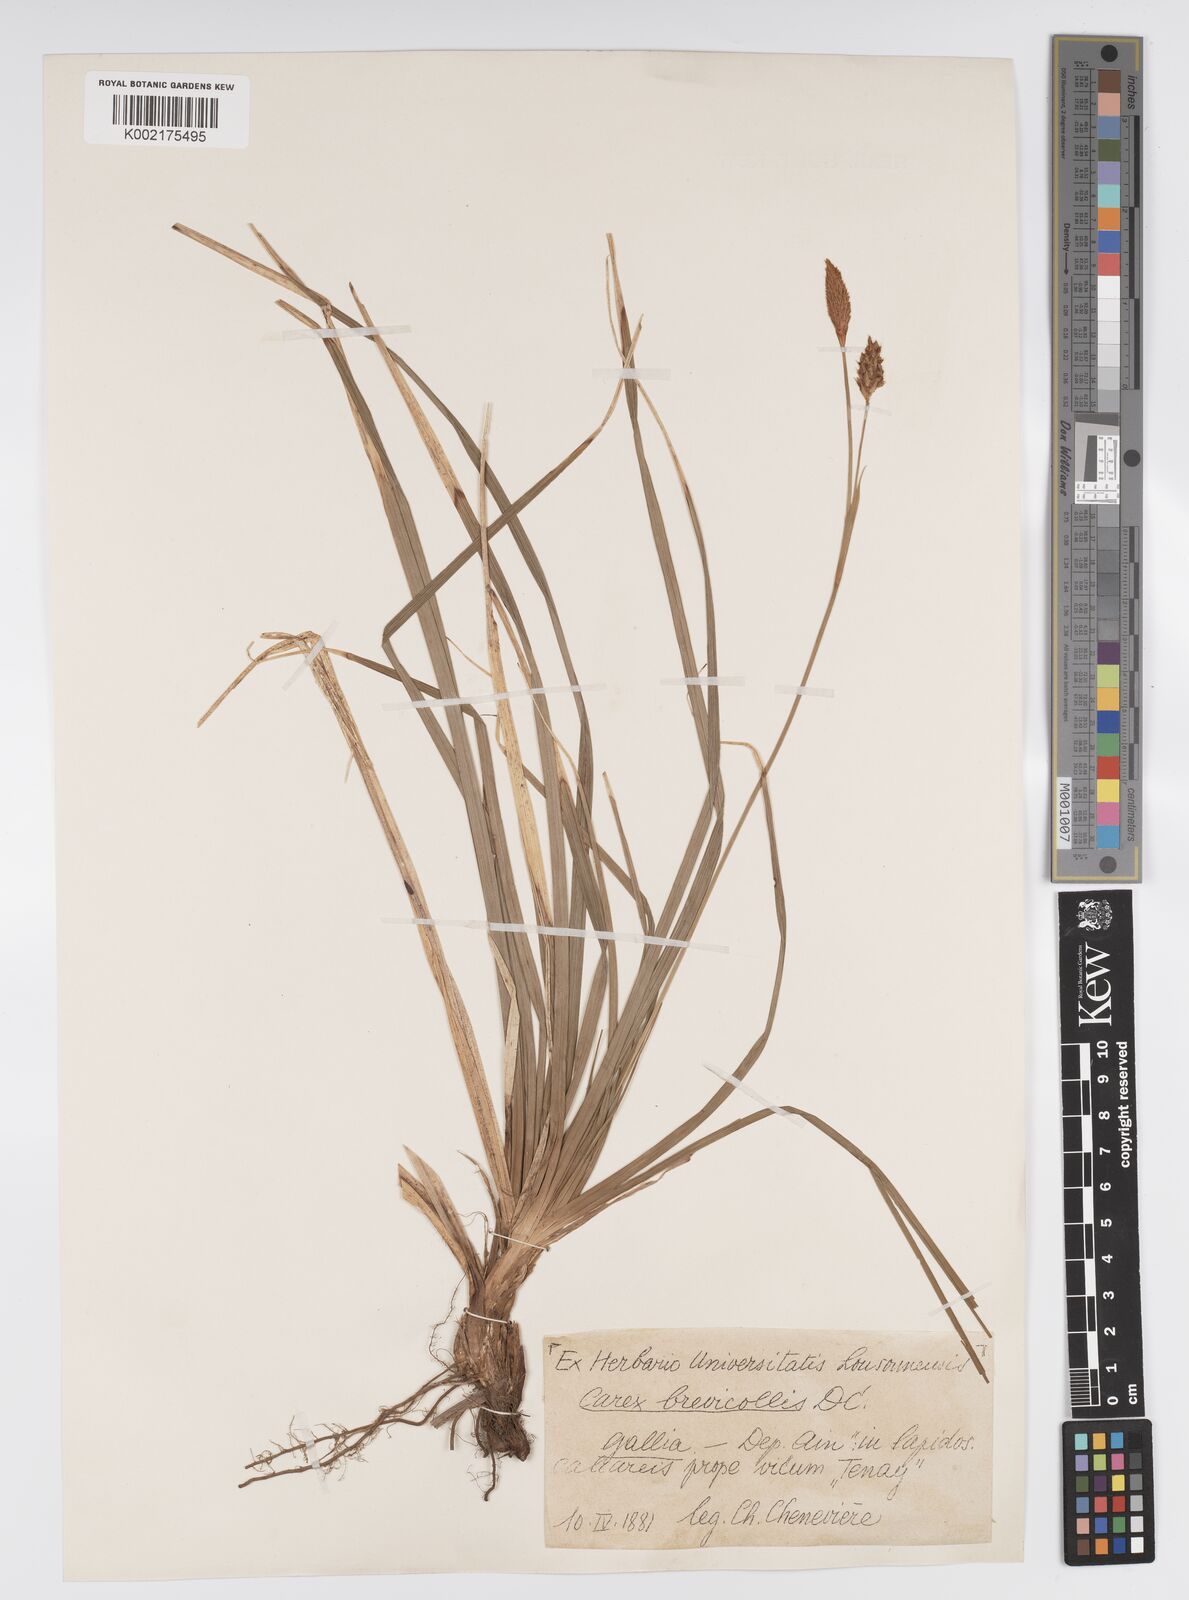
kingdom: Plantae
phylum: Tracheophyta
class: Liliopsida
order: Poales
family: Cyperaceae
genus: Carex
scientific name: Carex brevicollis
